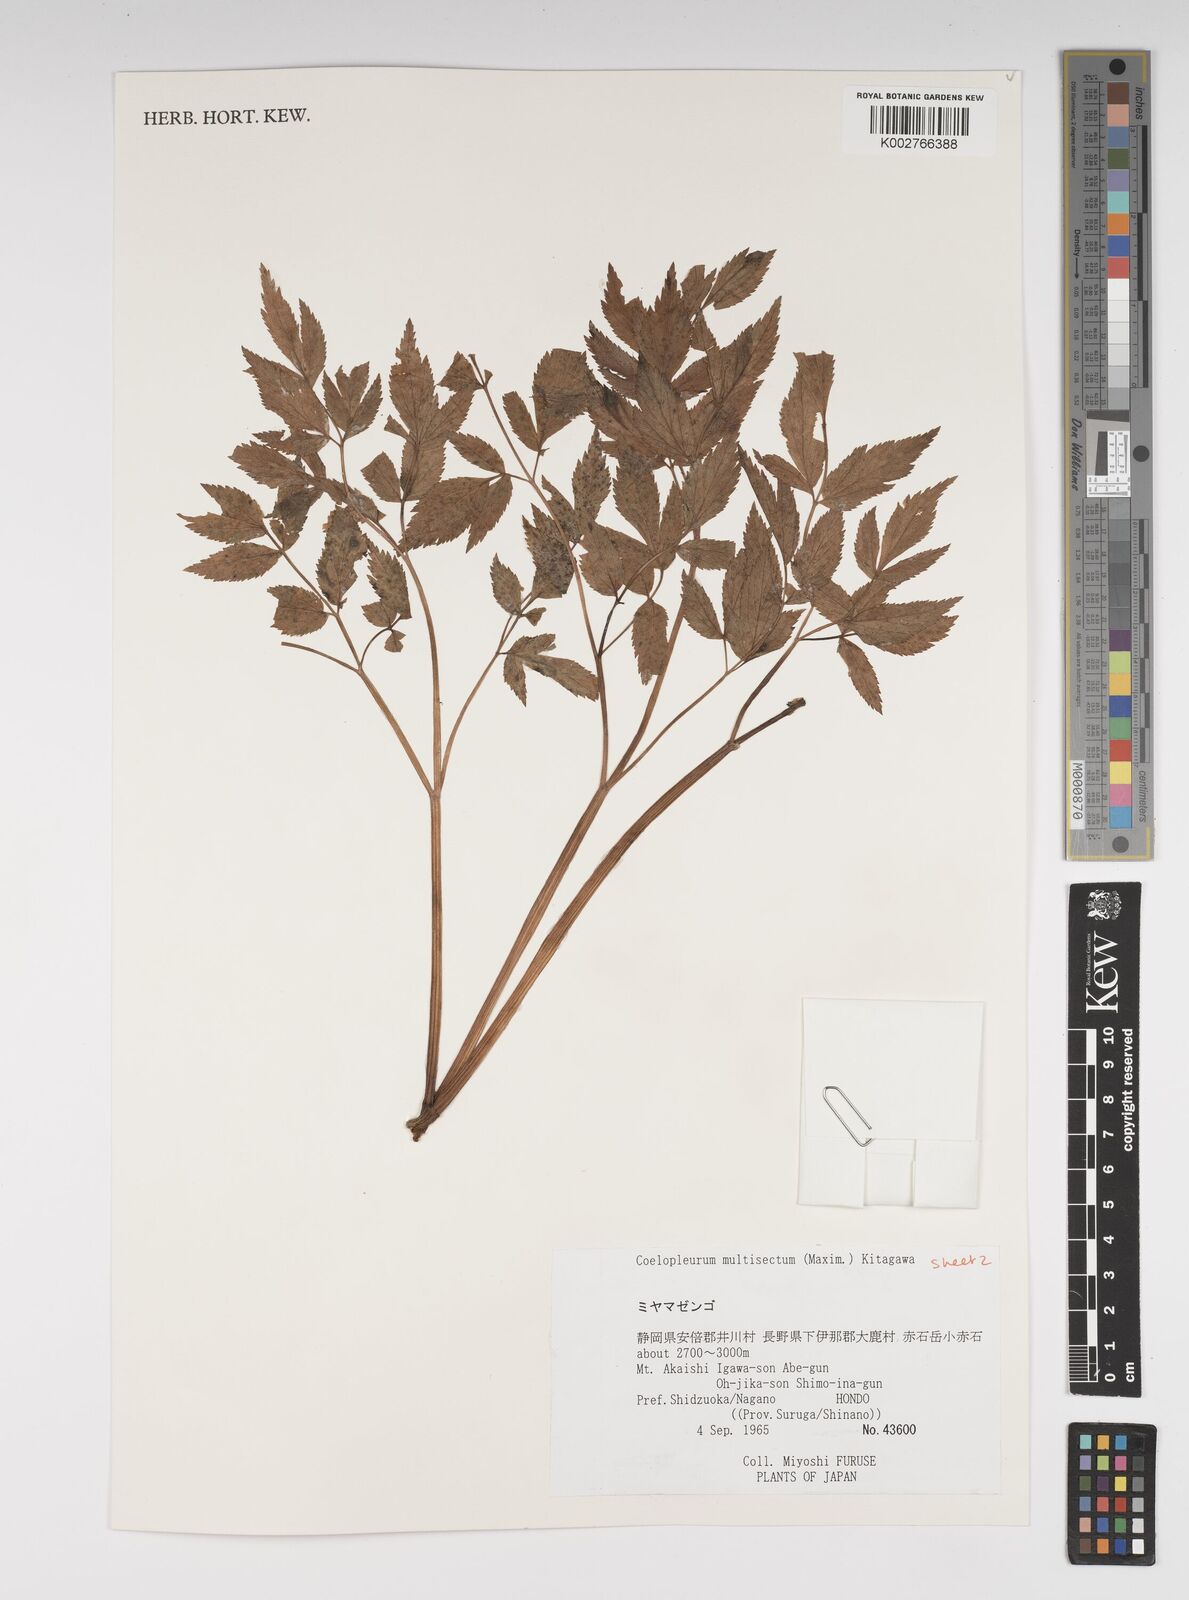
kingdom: Plantae
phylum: Tracheophyta
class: Magnoliopsida
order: Apiales
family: Apiaceae
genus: Angelica
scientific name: Angelica
